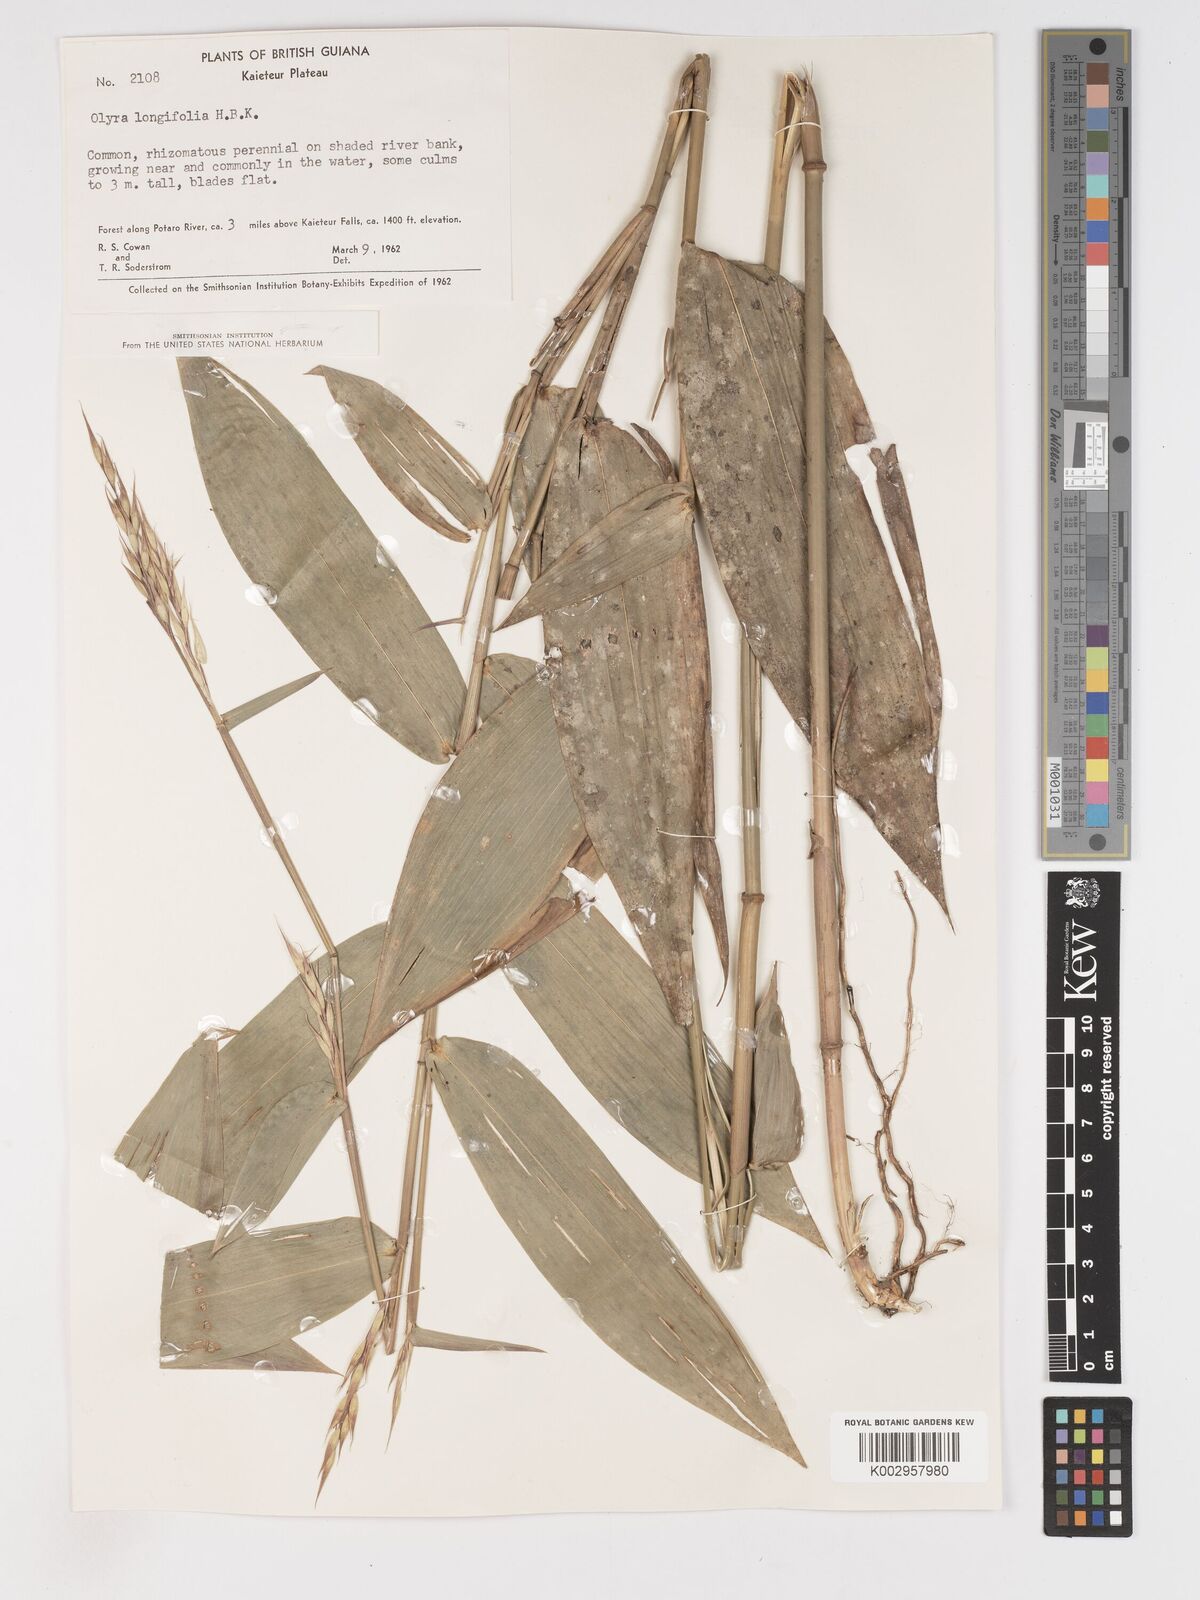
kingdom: Plantae
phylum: Tracheophyta
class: Liliopsida
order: Poales
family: Poaceae
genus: Olyra
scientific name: Olyra longifolia
